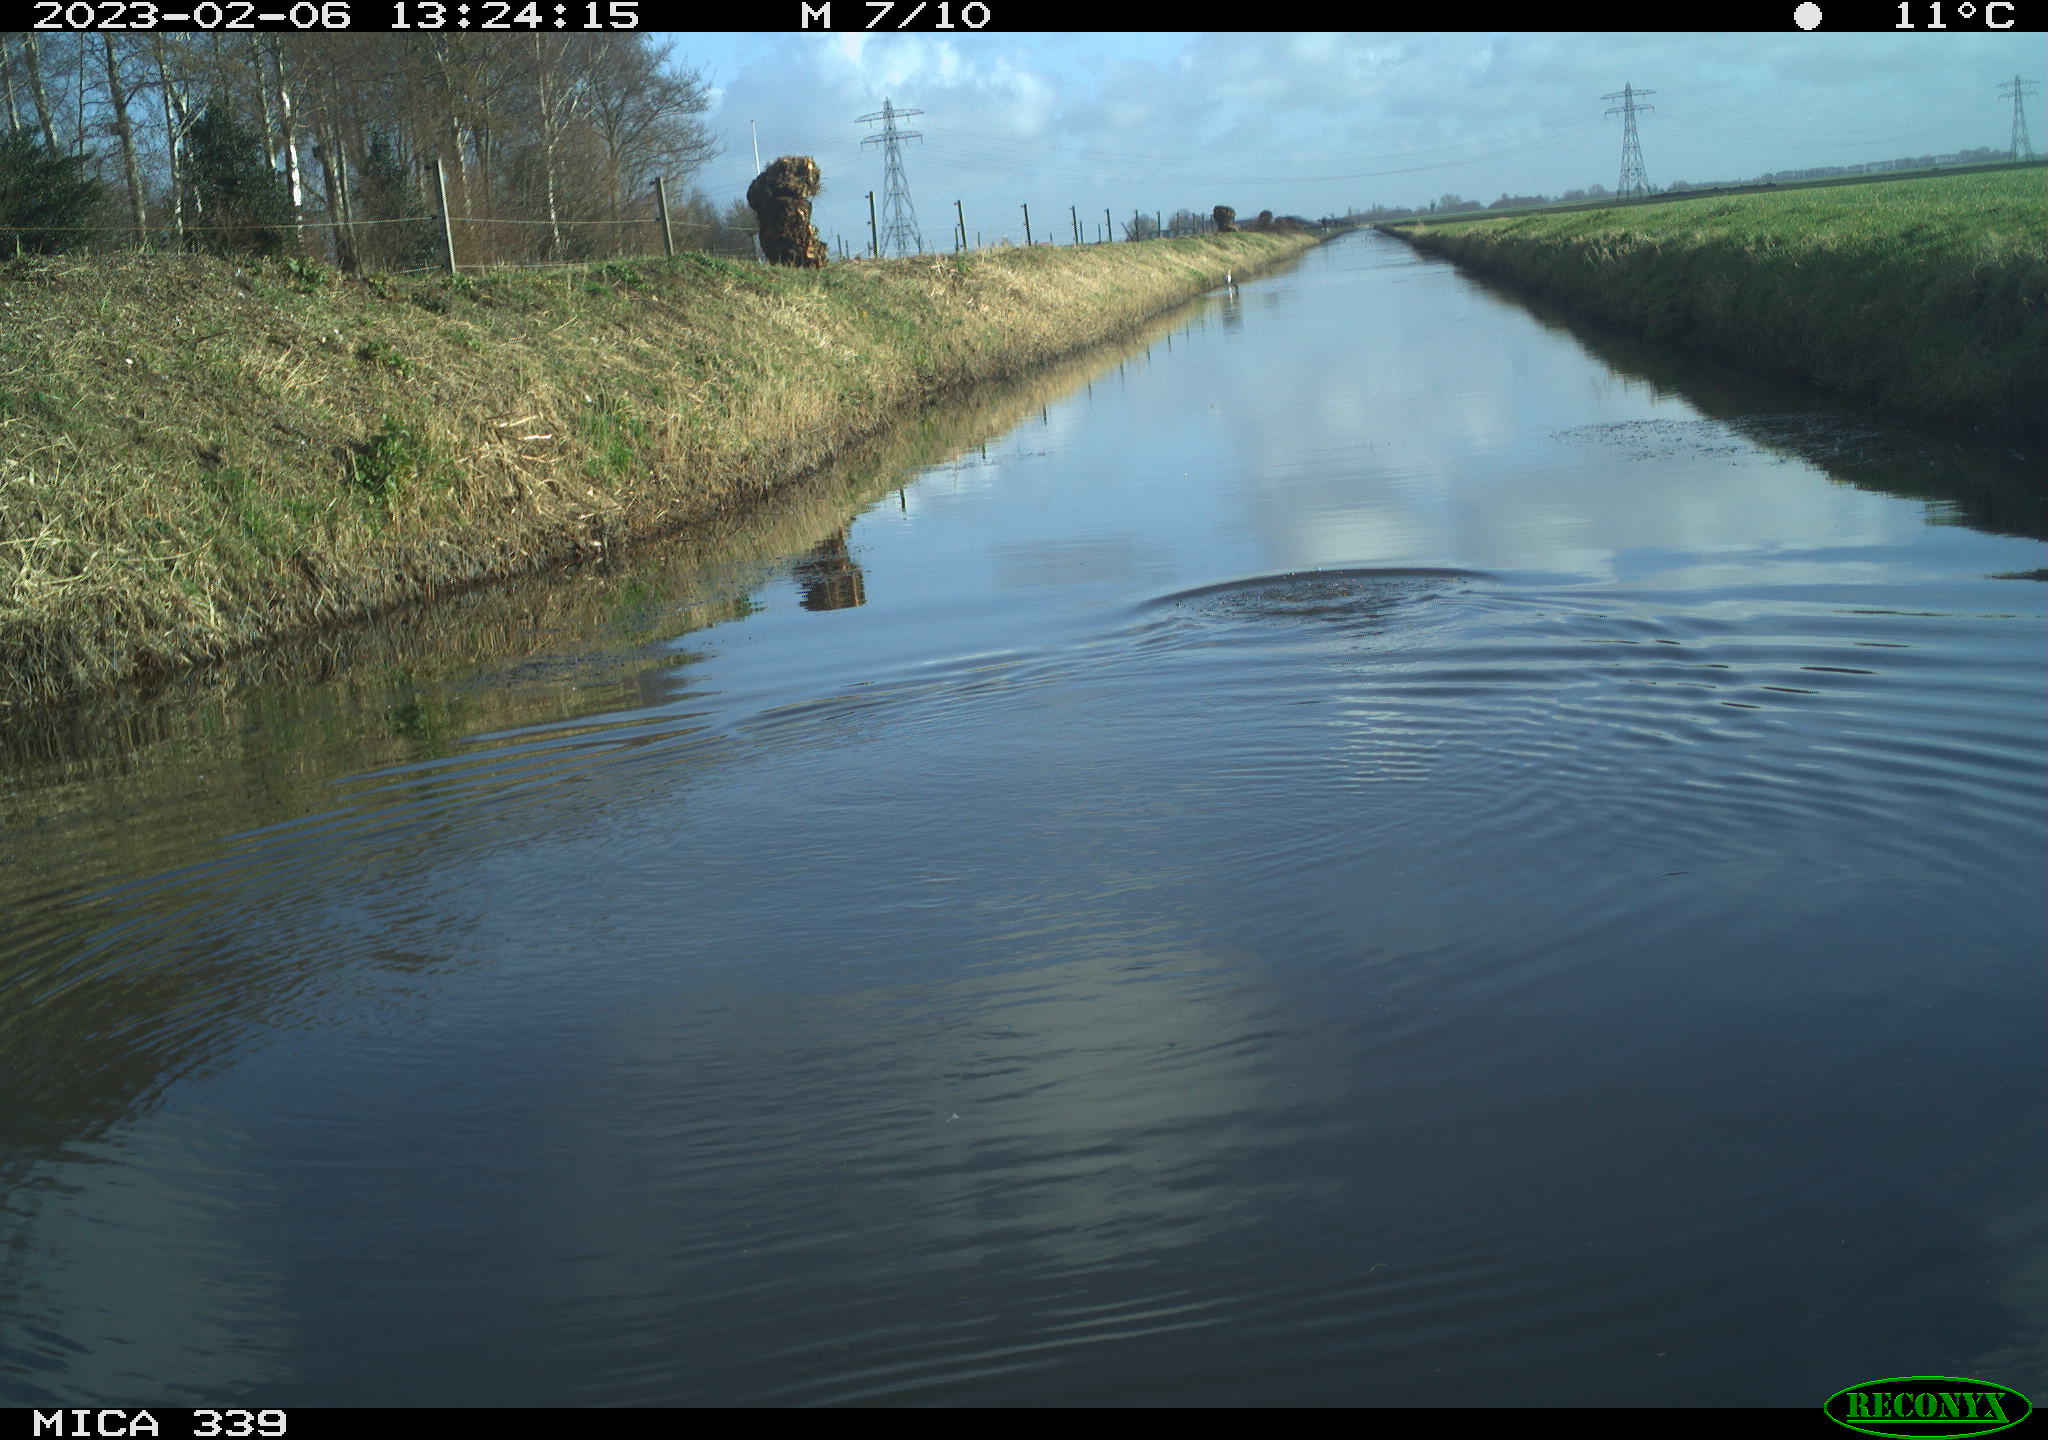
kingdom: Animalia
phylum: Chordata
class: Aves
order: Suliformes
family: Phalacrocoracidae
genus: Phalacrocorax
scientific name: Phalacrocorax carbo
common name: Great cormorant
